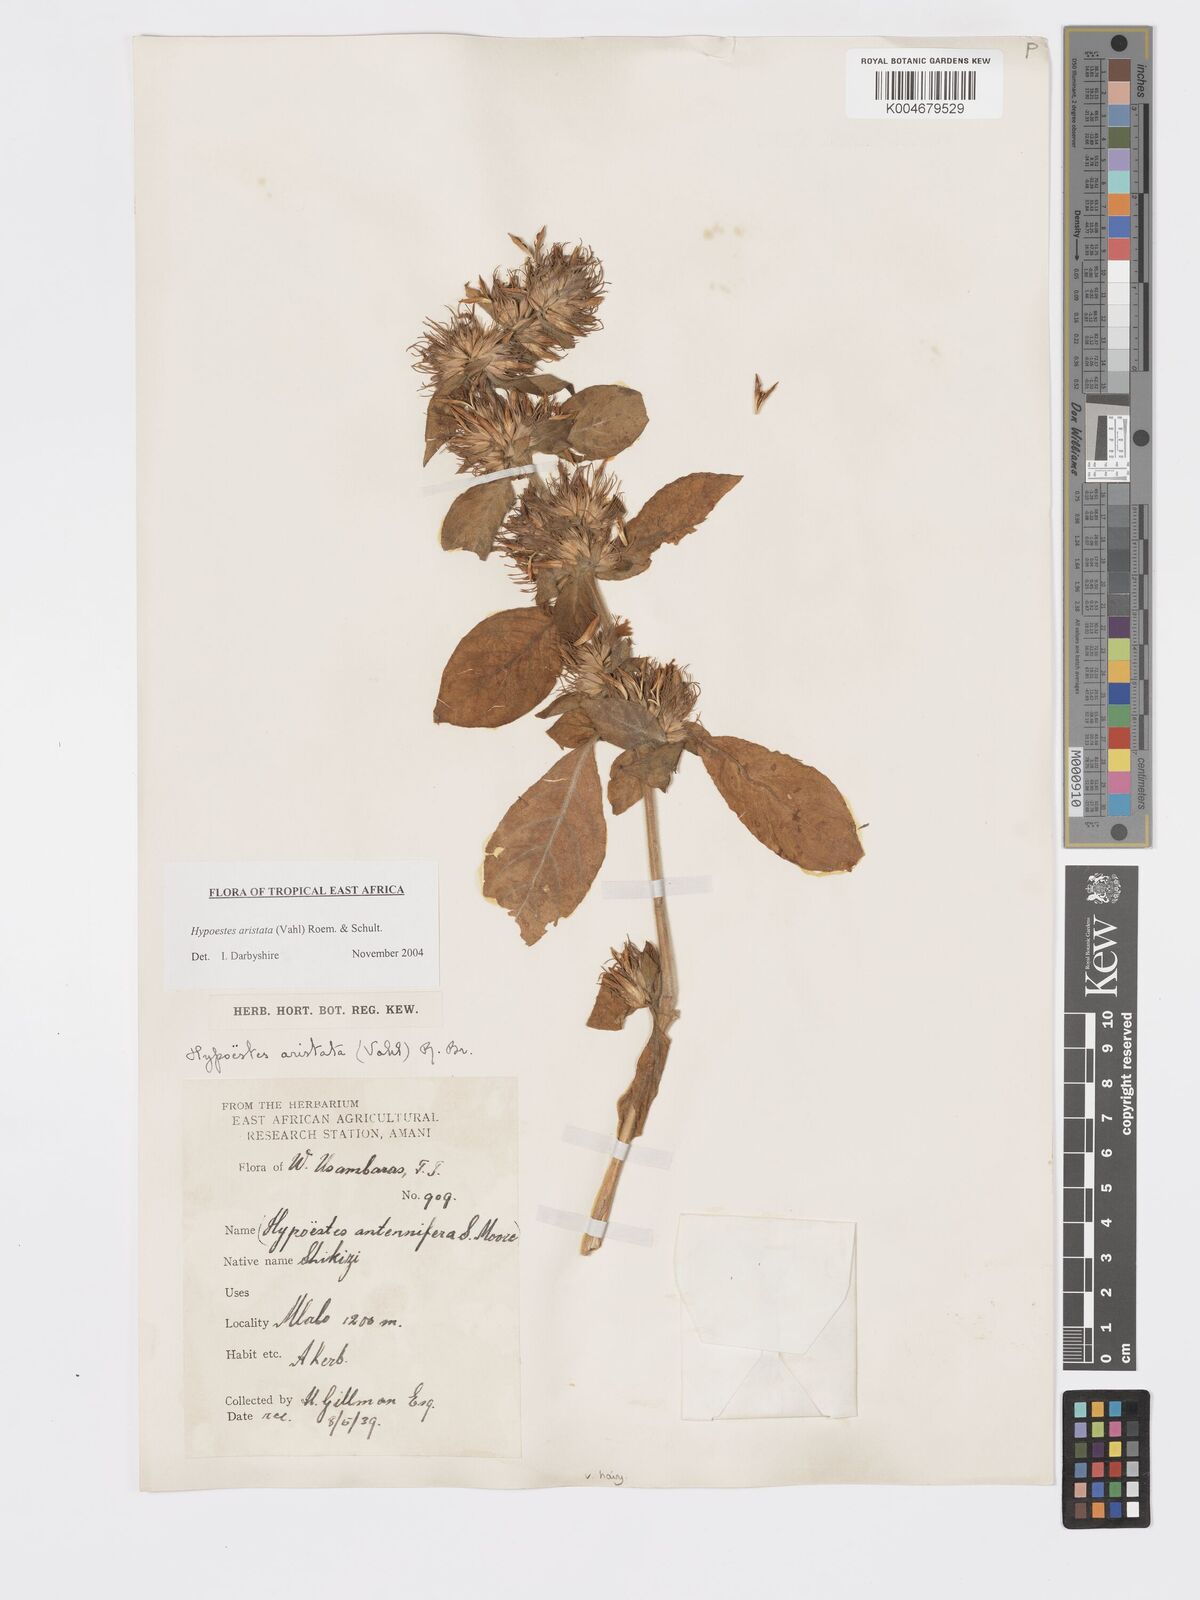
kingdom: Plantae
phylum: Tracheophyta
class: Magnoliopsida
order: Lamiales
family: Acanthaceae
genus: Hypoestes
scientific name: Hypoestes aristata
